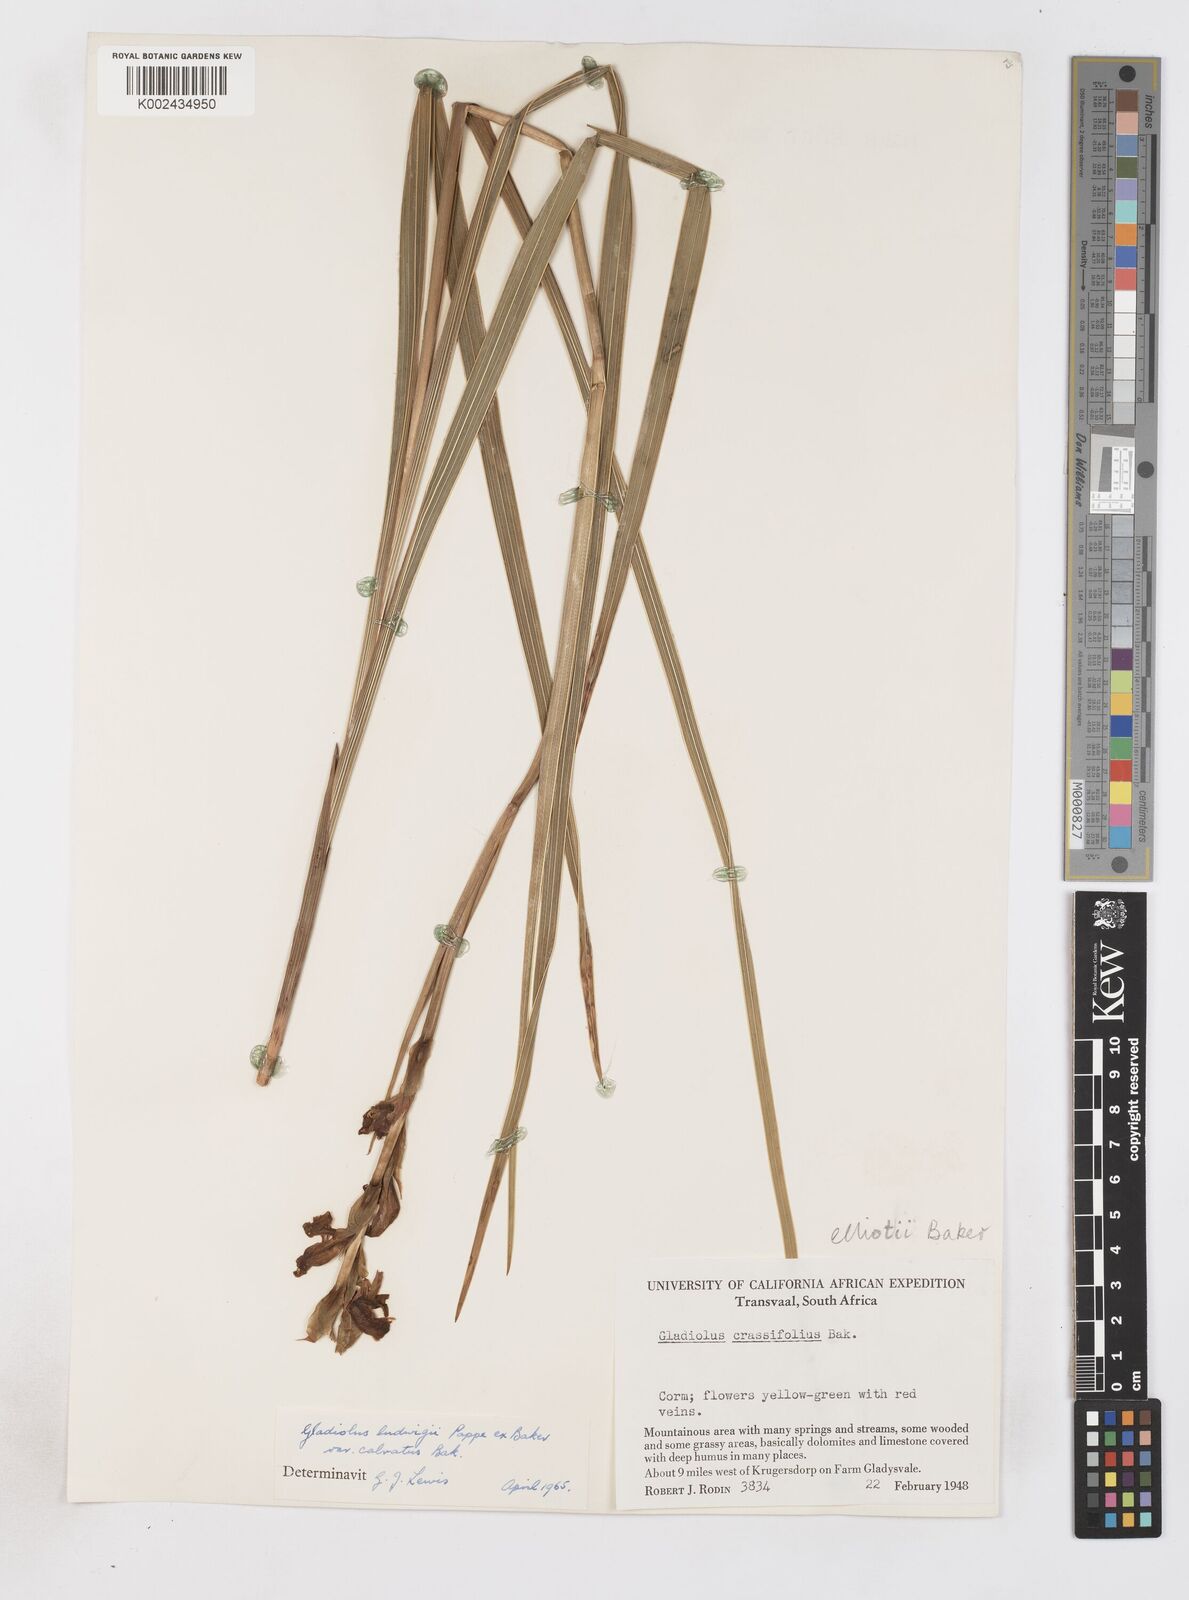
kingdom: Plantae
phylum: Tracheophyta
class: Liliopsida
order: Asparagales
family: Iridaceae
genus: Gladiolus
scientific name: Gladiolus sericeovillosus
